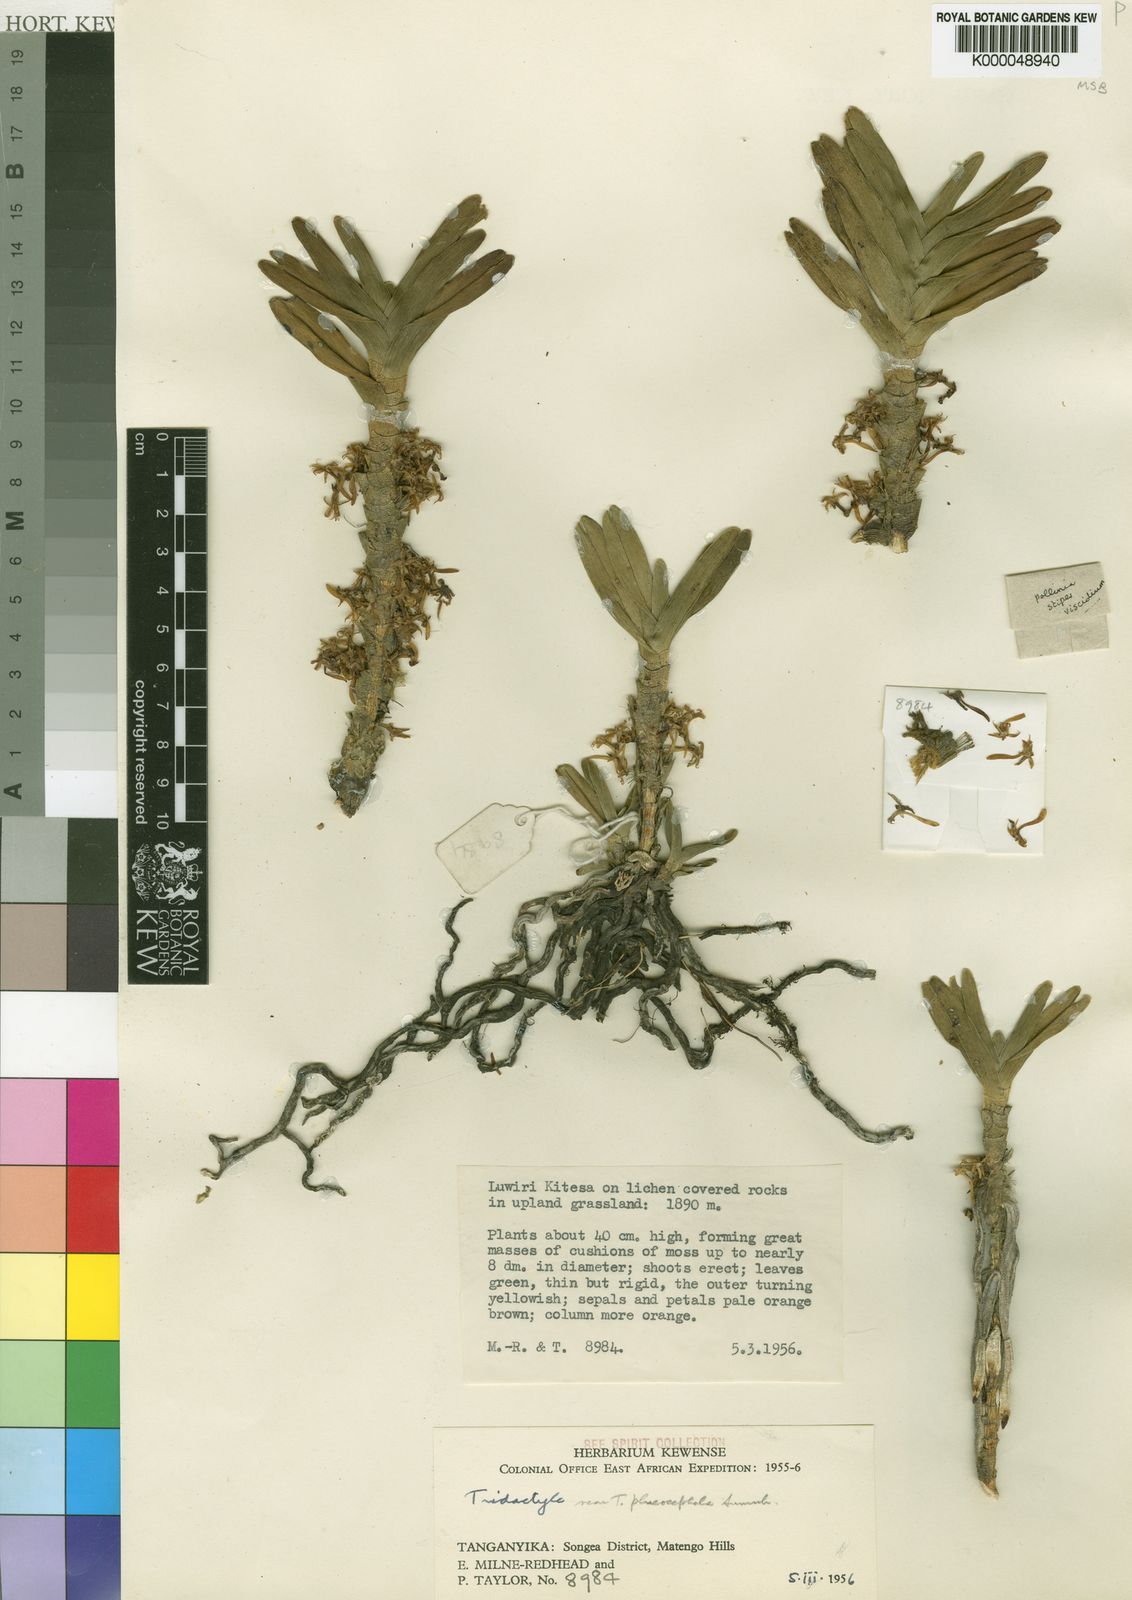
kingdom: Plantae
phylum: Tracheophyta
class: Liliopsida
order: Asparagales
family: Orchidaceae
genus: Tridactyle
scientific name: Tridactyle verrucosa
